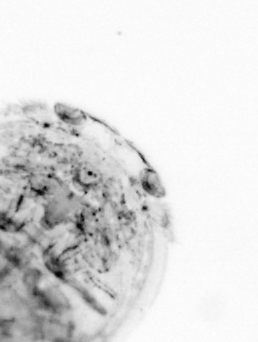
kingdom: Animalia
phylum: Chaetognatha
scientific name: Chaetognatha
